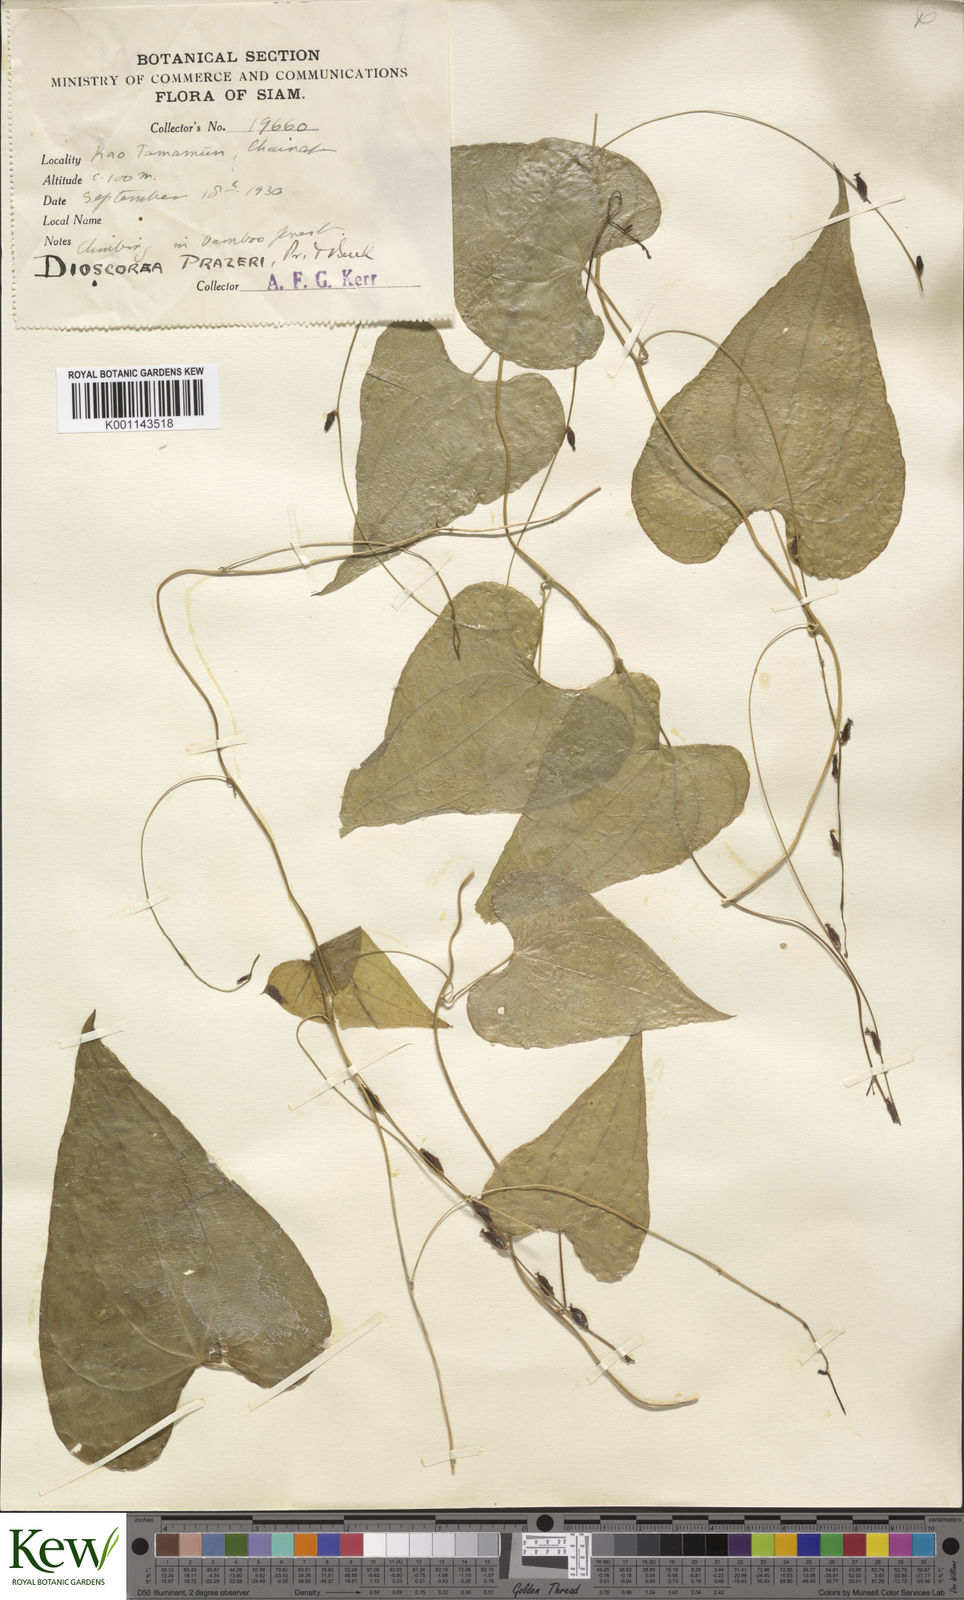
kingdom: Plantae
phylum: Tracheophyta
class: Liliopsida
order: Dioscoreales
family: Dioscoreaceae
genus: Dioscorea
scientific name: Dioscorea prazeri
